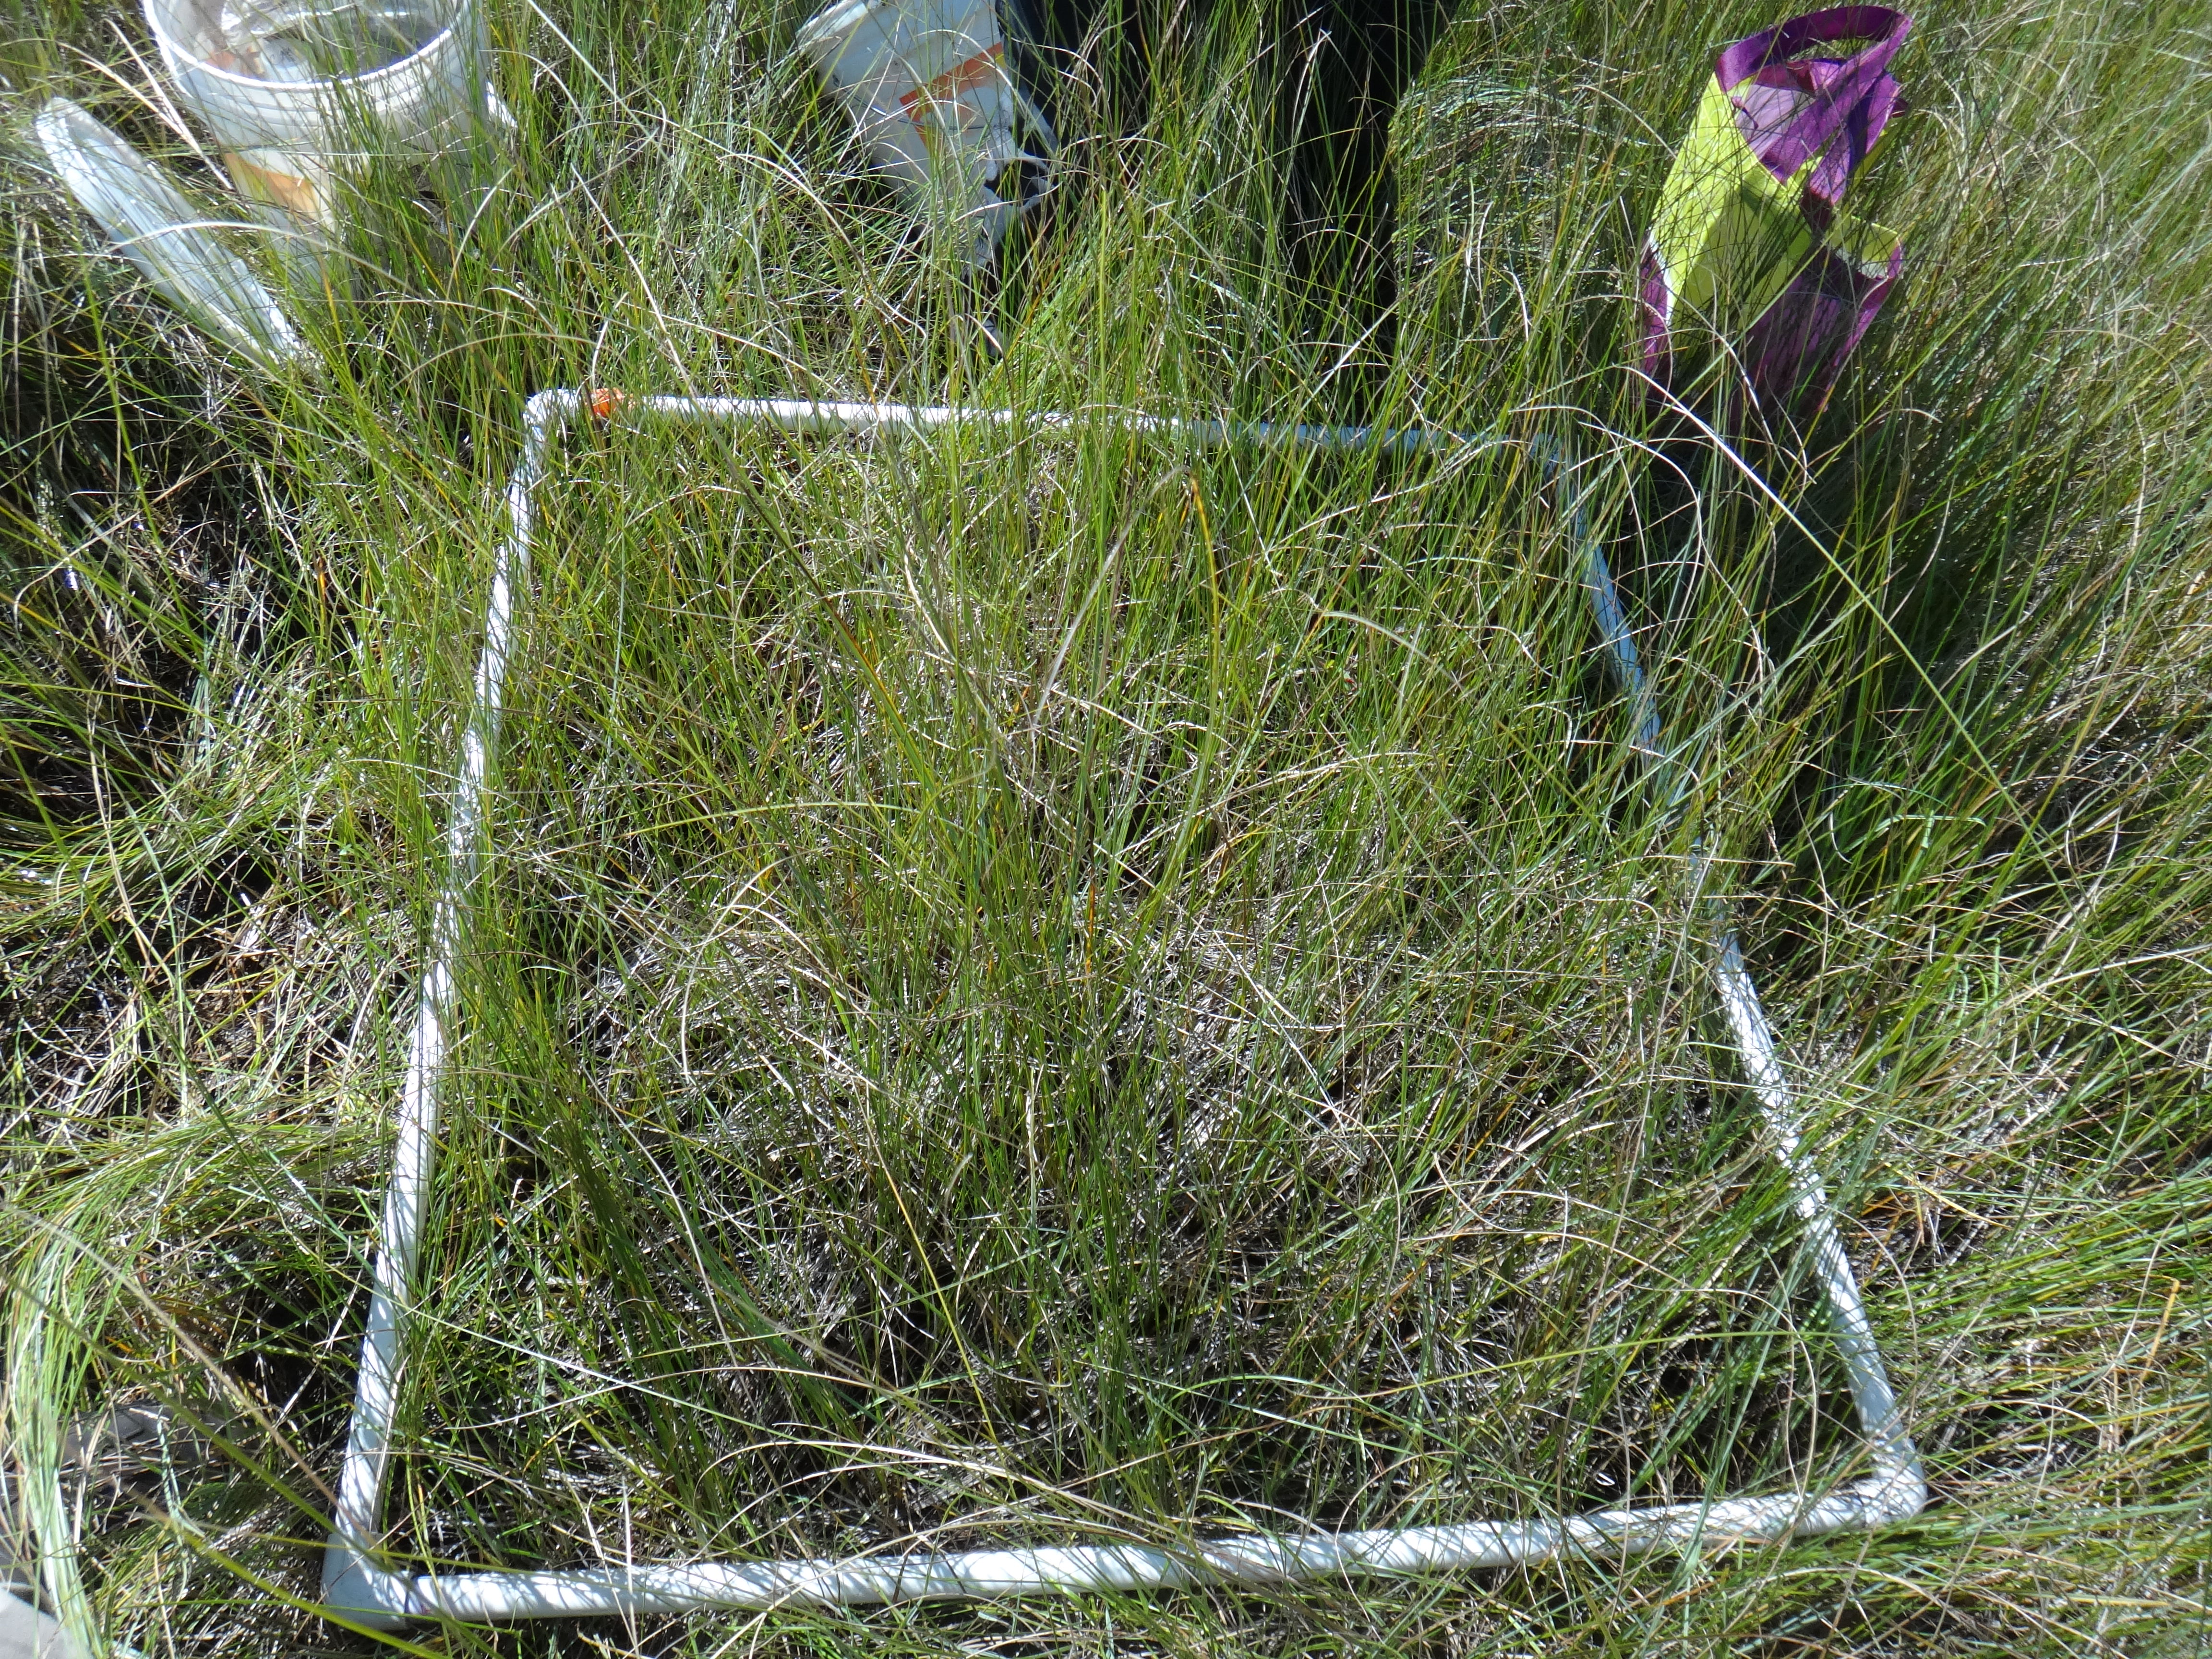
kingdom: Plantae
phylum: Tracheophyta
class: Liliopsida
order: Poales
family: Cyperaceae
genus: Carex
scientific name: Carex aquatilis
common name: Water sedge
